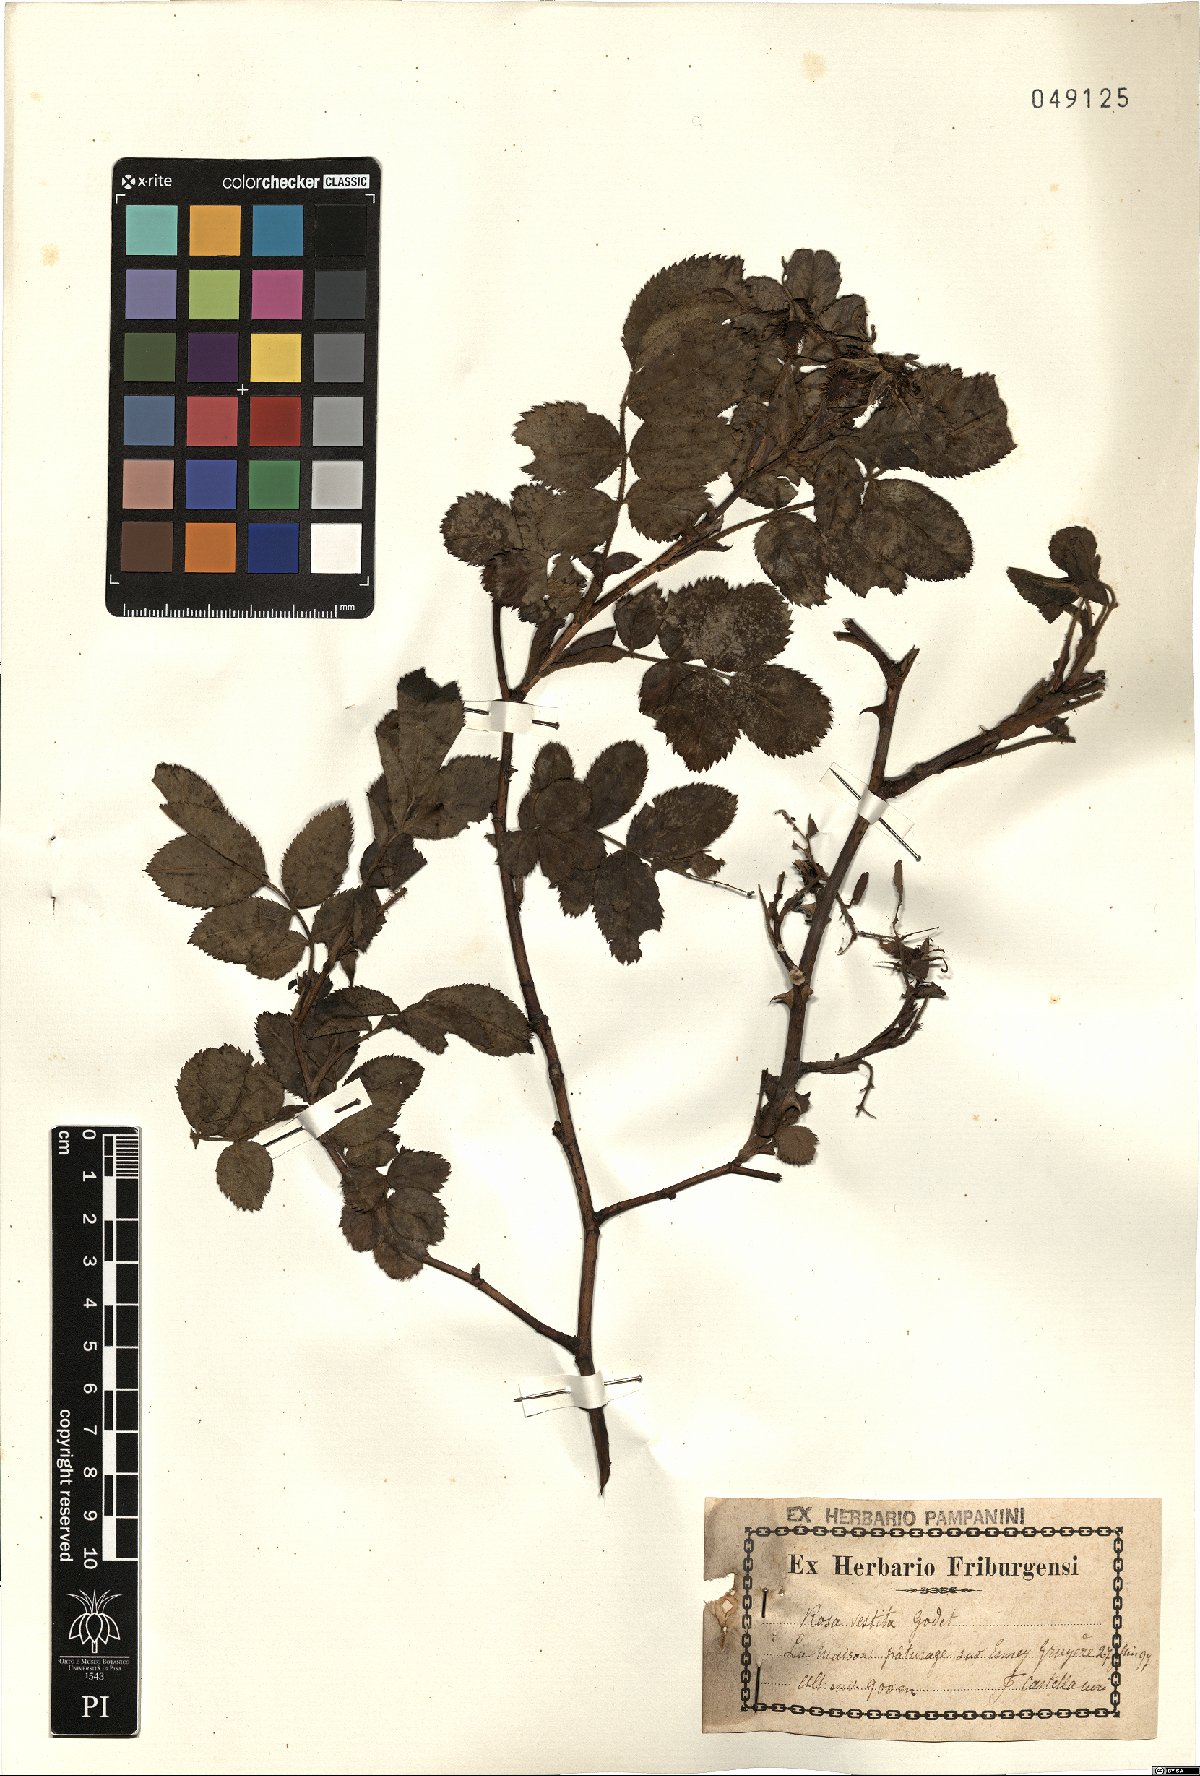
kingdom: Plantae
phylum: Tracheophyta
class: Magnoliopsida
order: Rosales
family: Rosaceae
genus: Rosa
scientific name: Rosa spinulifolia
